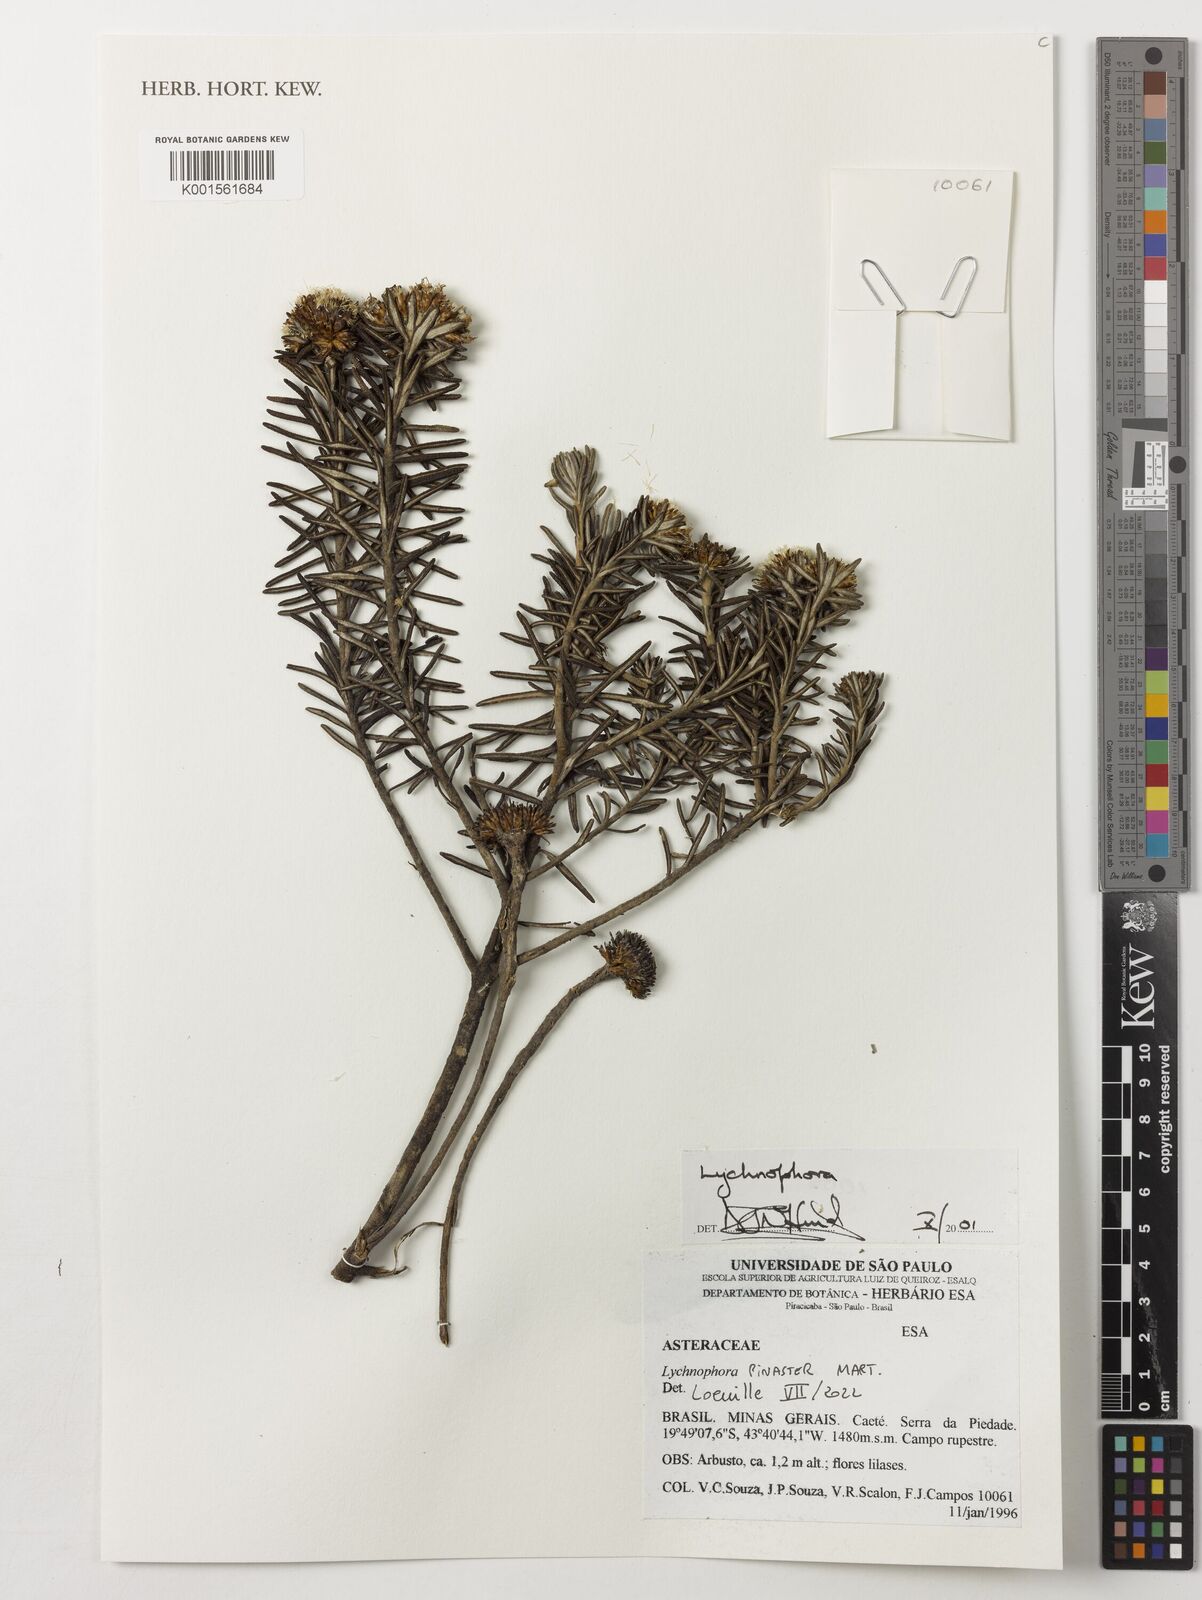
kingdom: Plantae
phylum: Tracheophyta
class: Magnoliopsida
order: Asterales
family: Asteraceae
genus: Lychnophora
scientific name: Lychnophora
